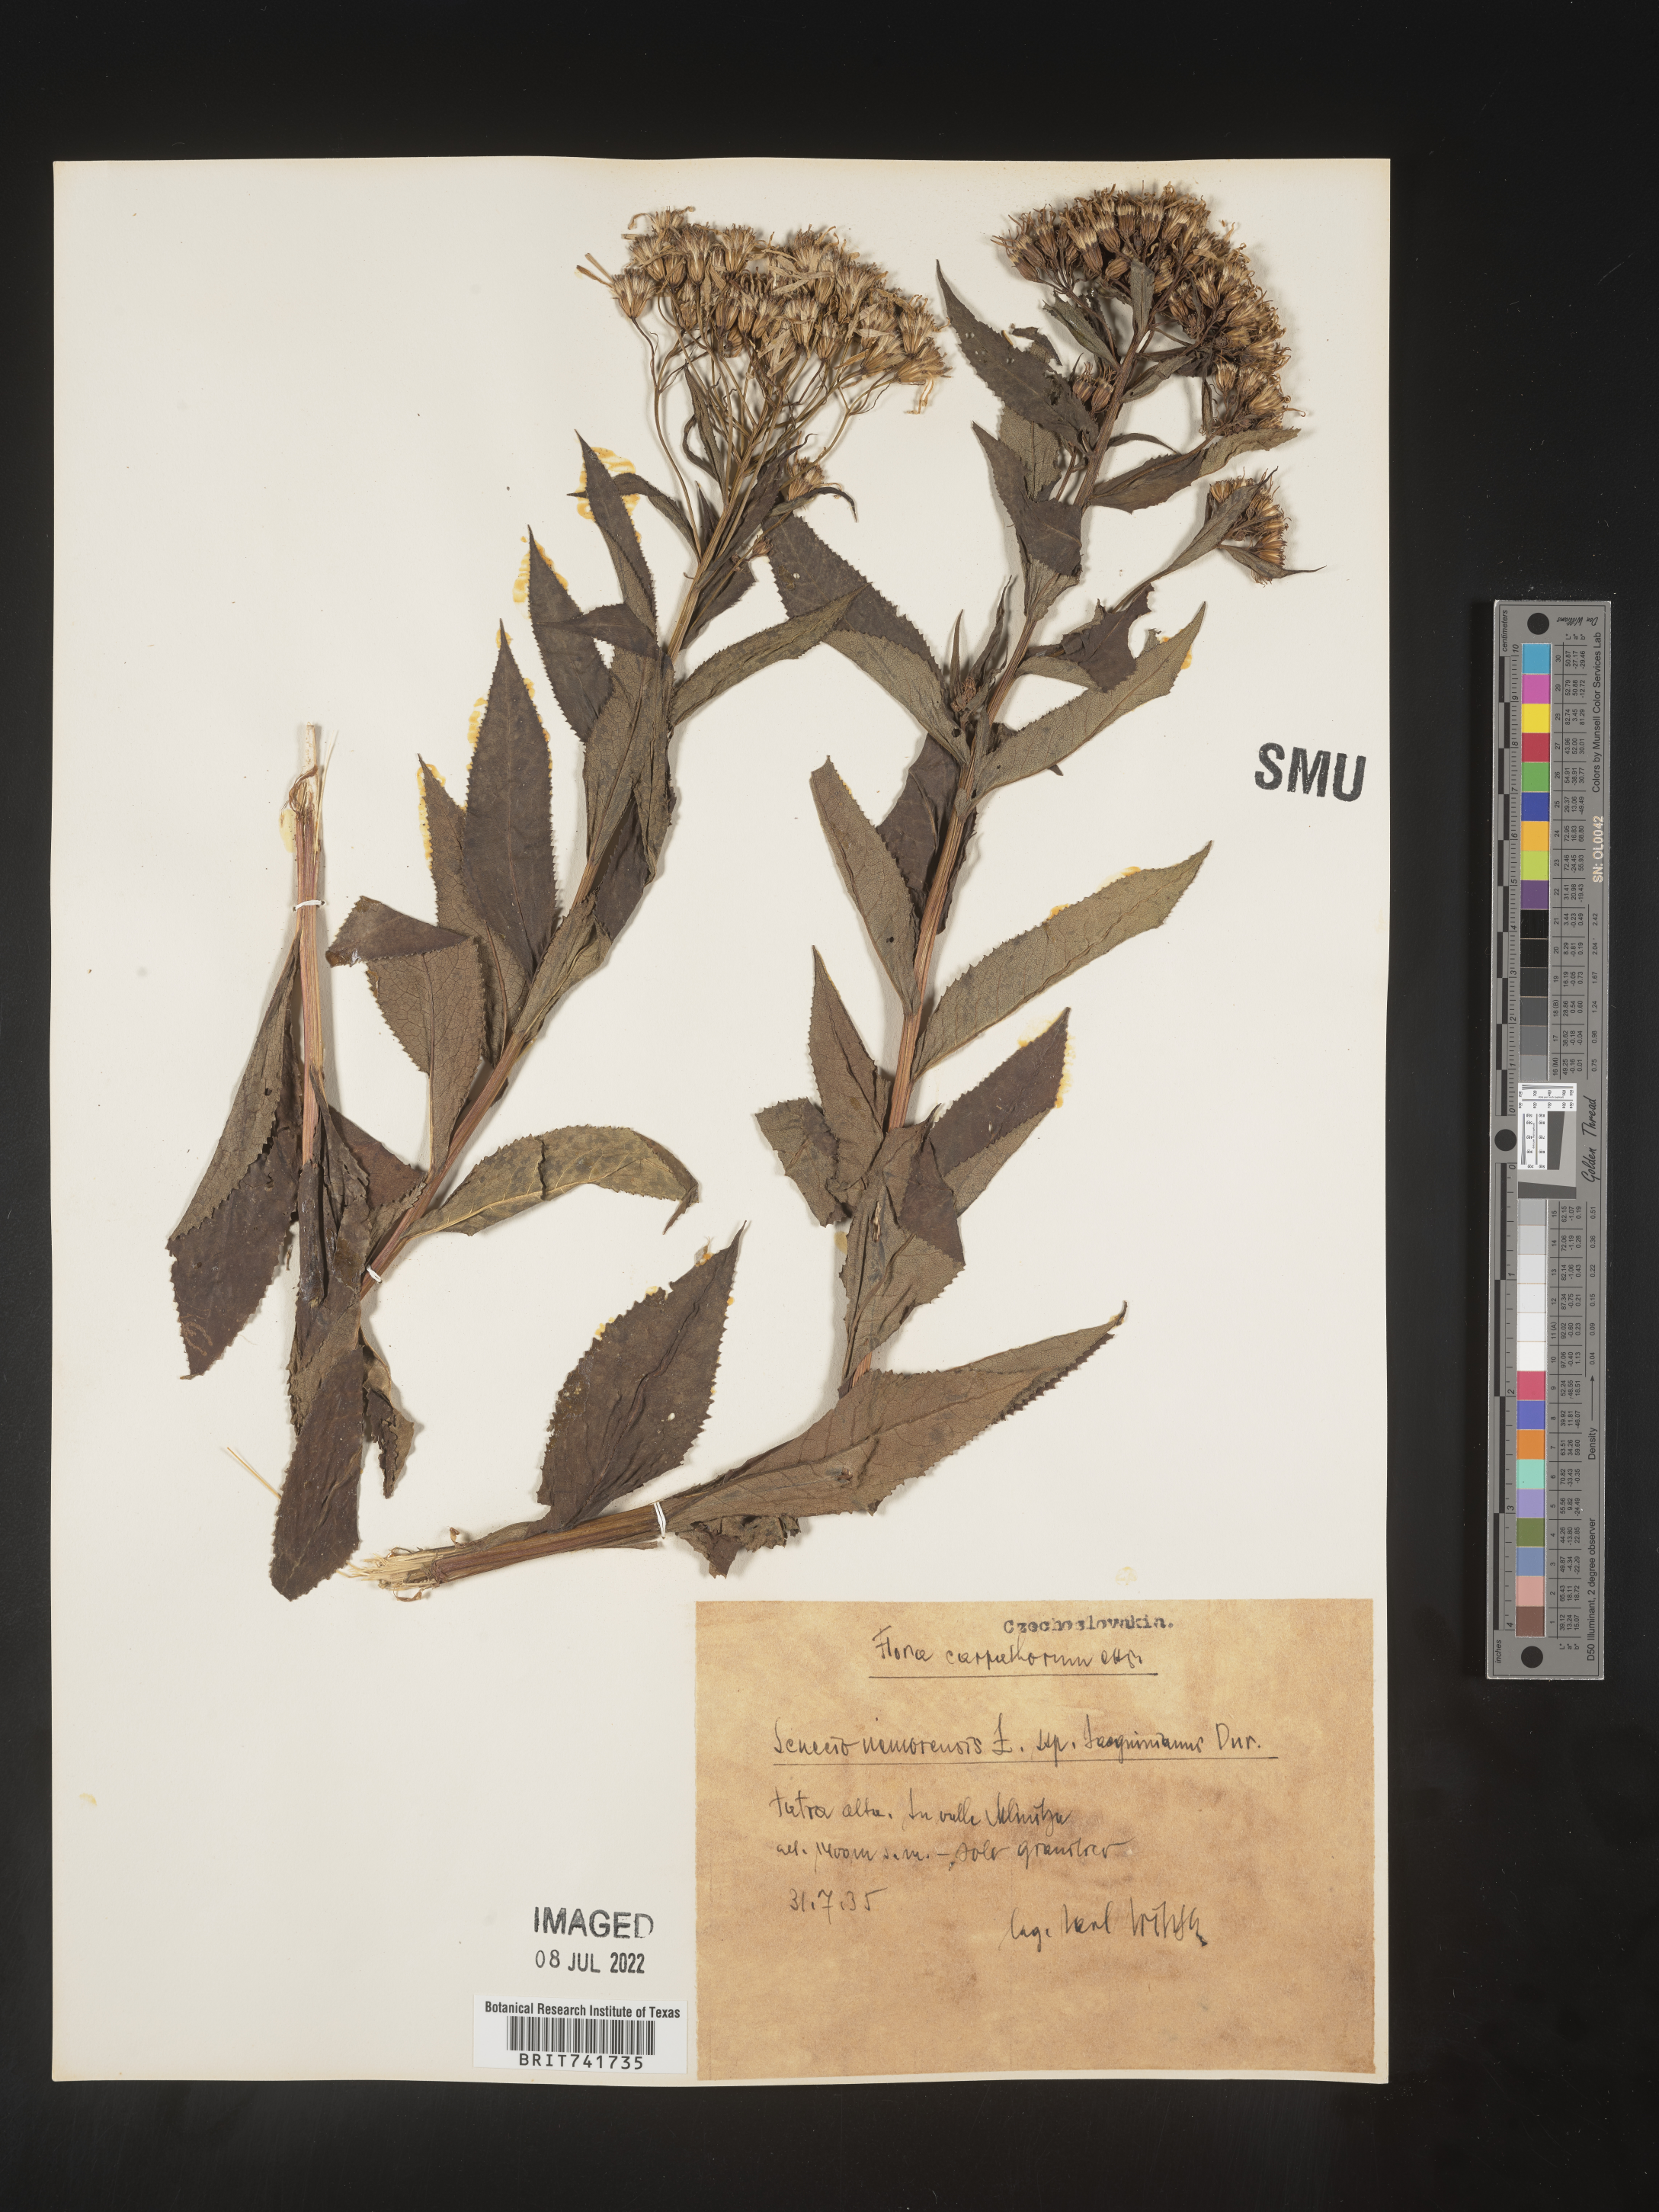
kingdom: Plantae
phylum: Tracheophyta
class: Magnoliopsida
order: Asterales
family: Asteraceae
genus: Senecio
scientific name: Senecio
